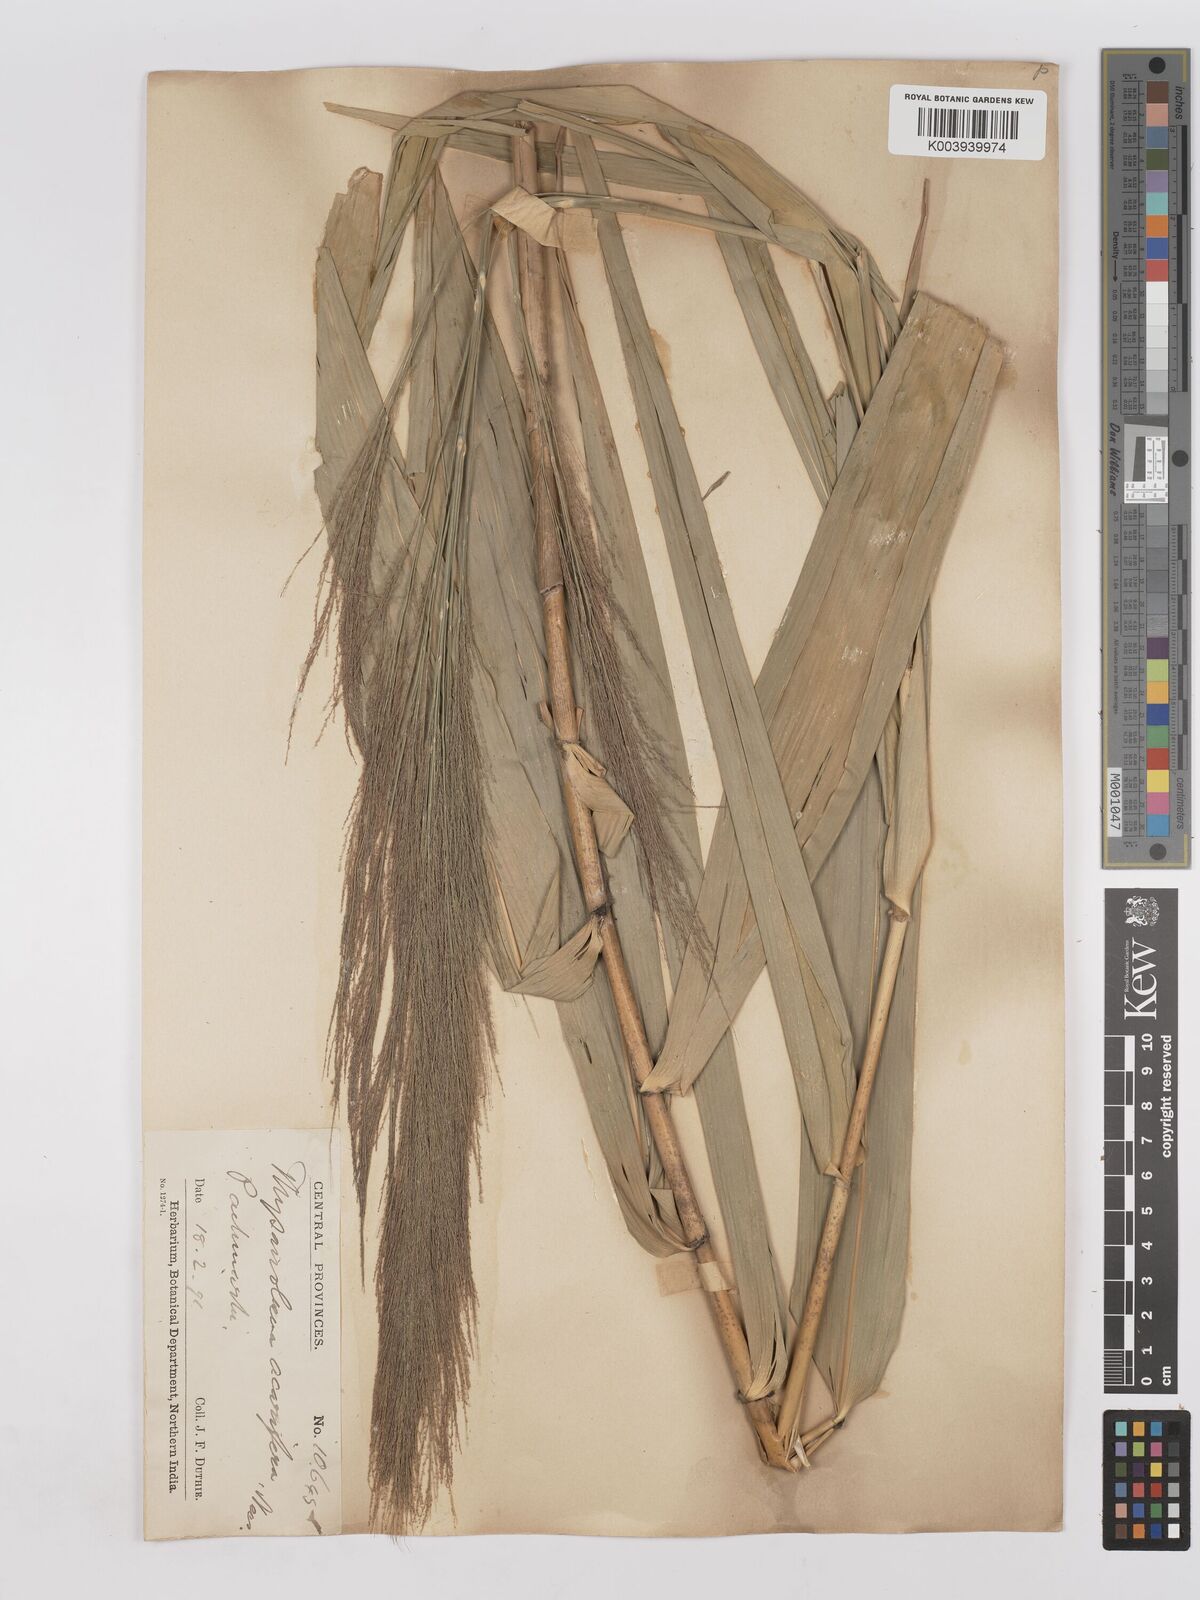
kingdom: Plantae
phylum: Tracheophyta
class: Liliopsida
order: Poales
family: Poaceae
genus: Thysanolaena
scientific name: Thysanolaena latifolia
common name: Tiger grass
